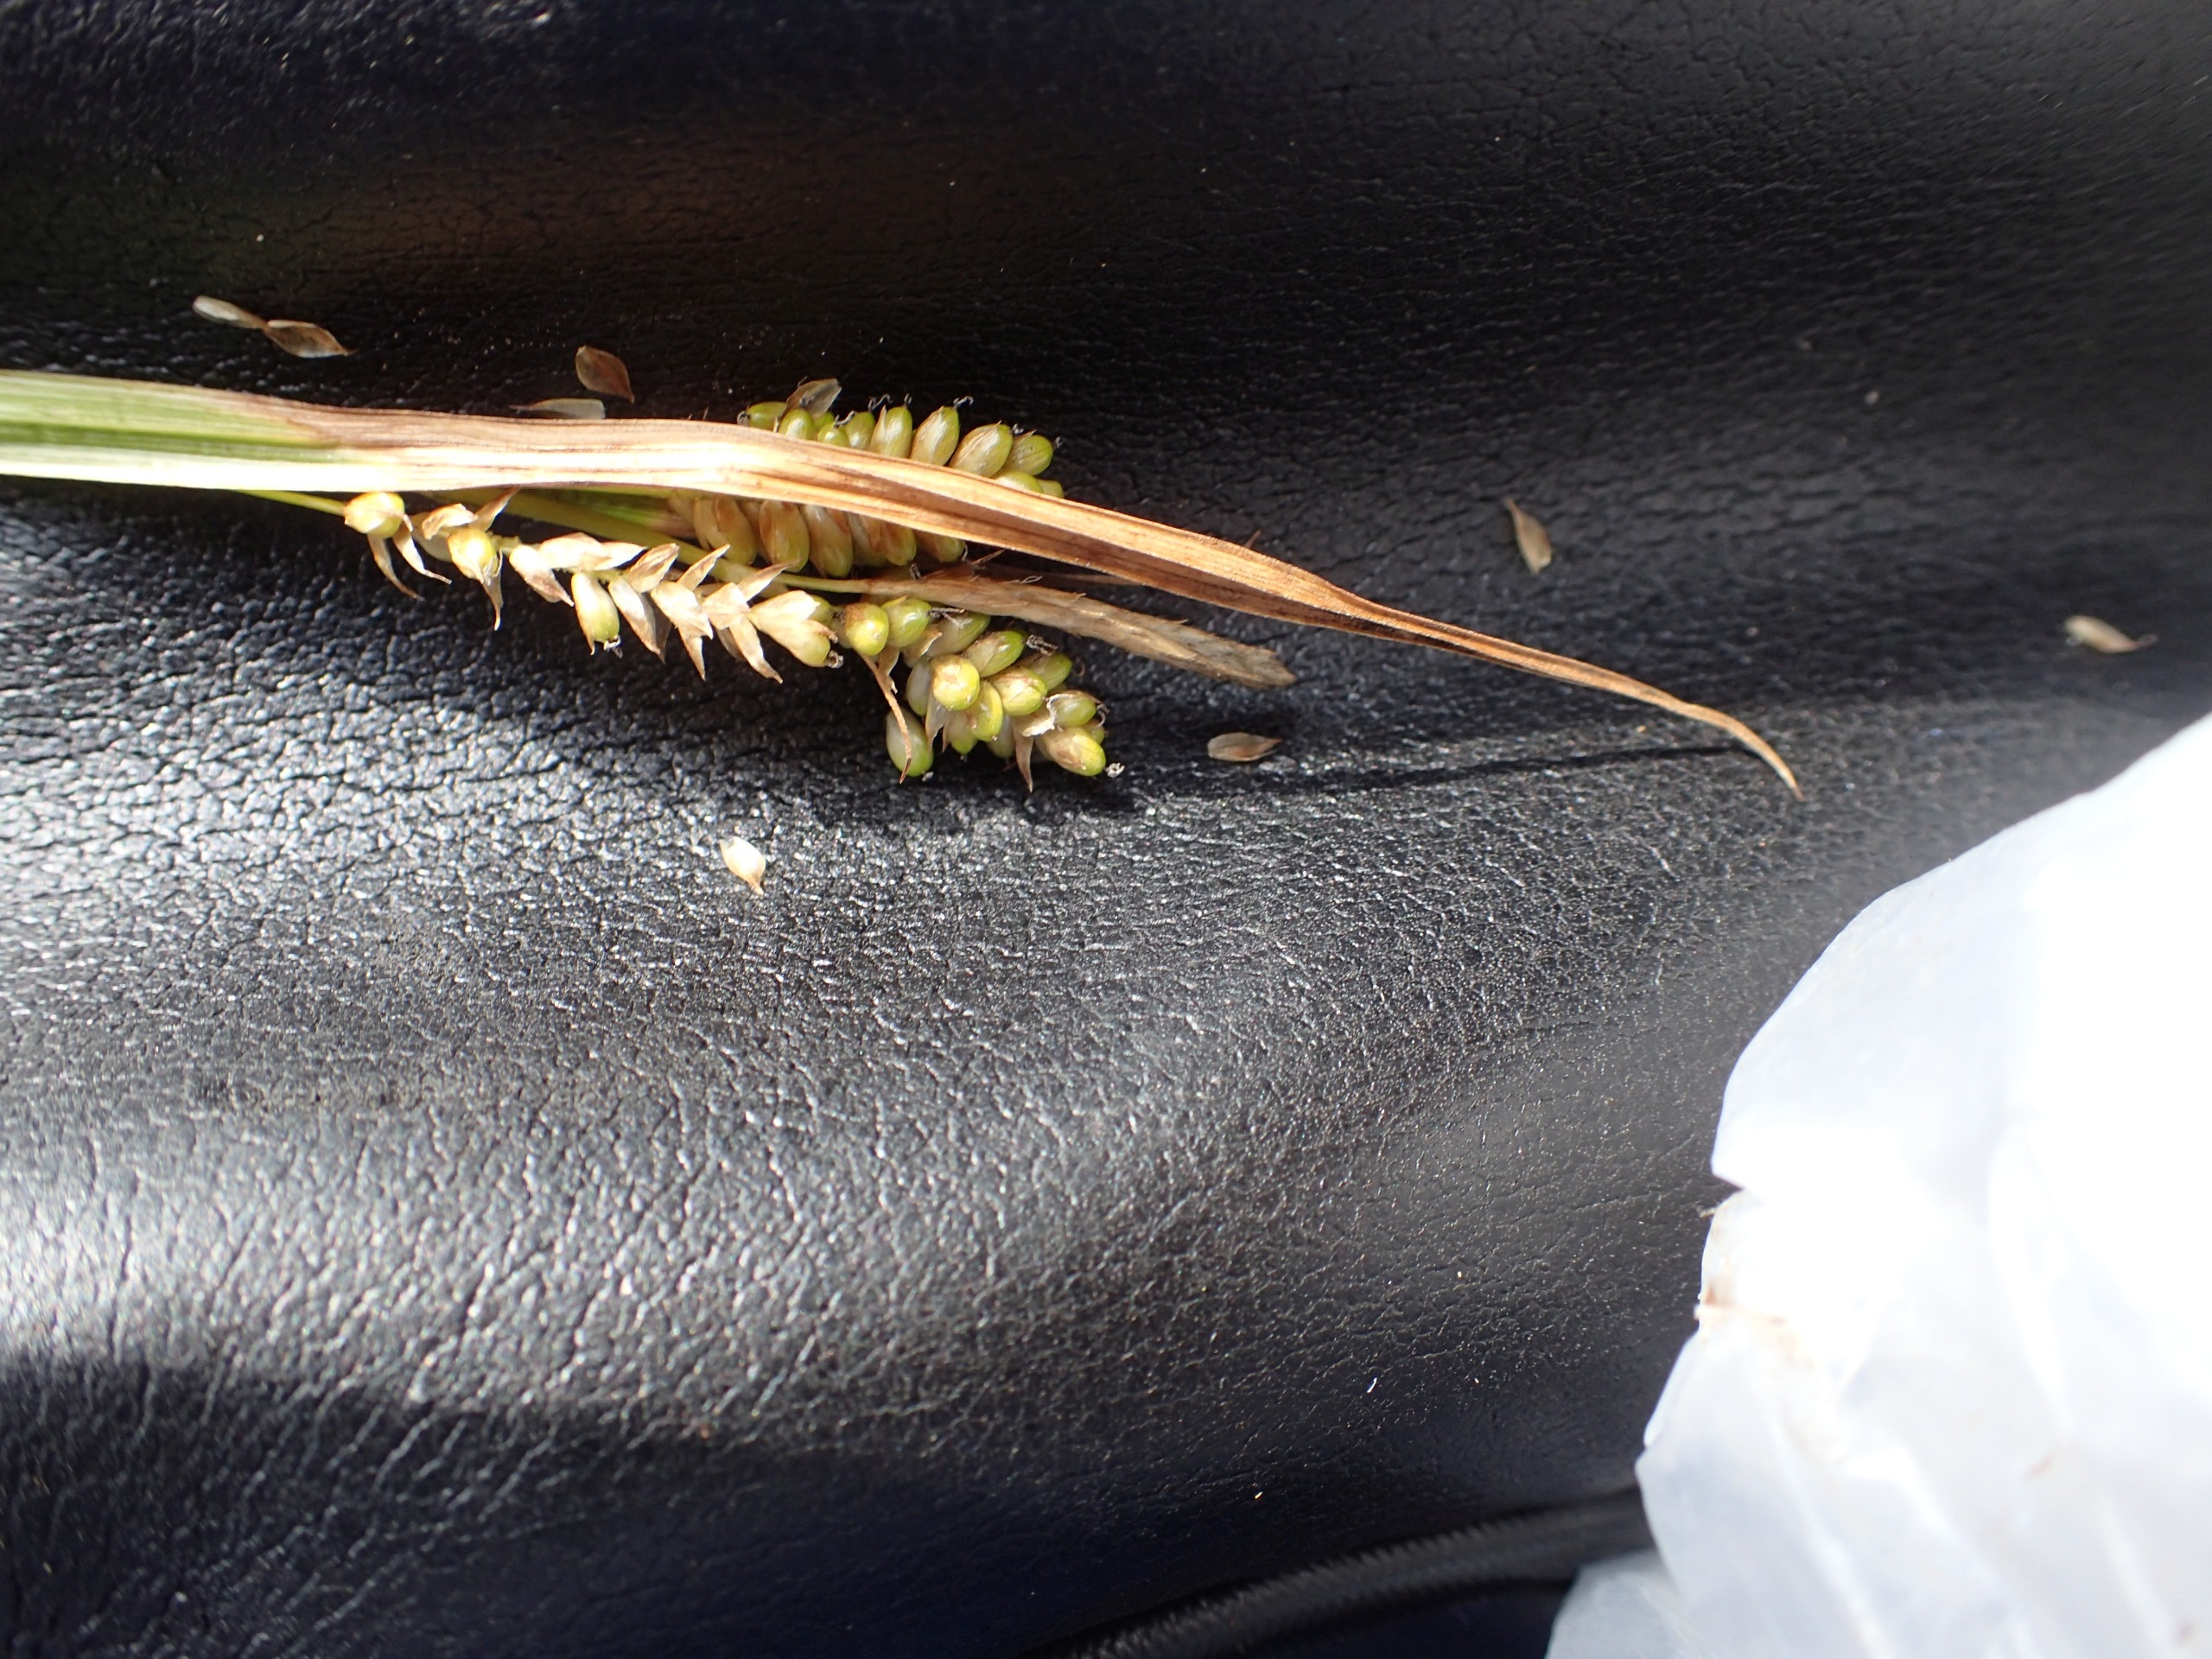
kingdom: Plantae
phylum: Tracheophyta
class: Liliopsida
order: Poales
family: Cyperaceae
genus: Carex
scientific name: Carex pallescens
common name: Bleg star
